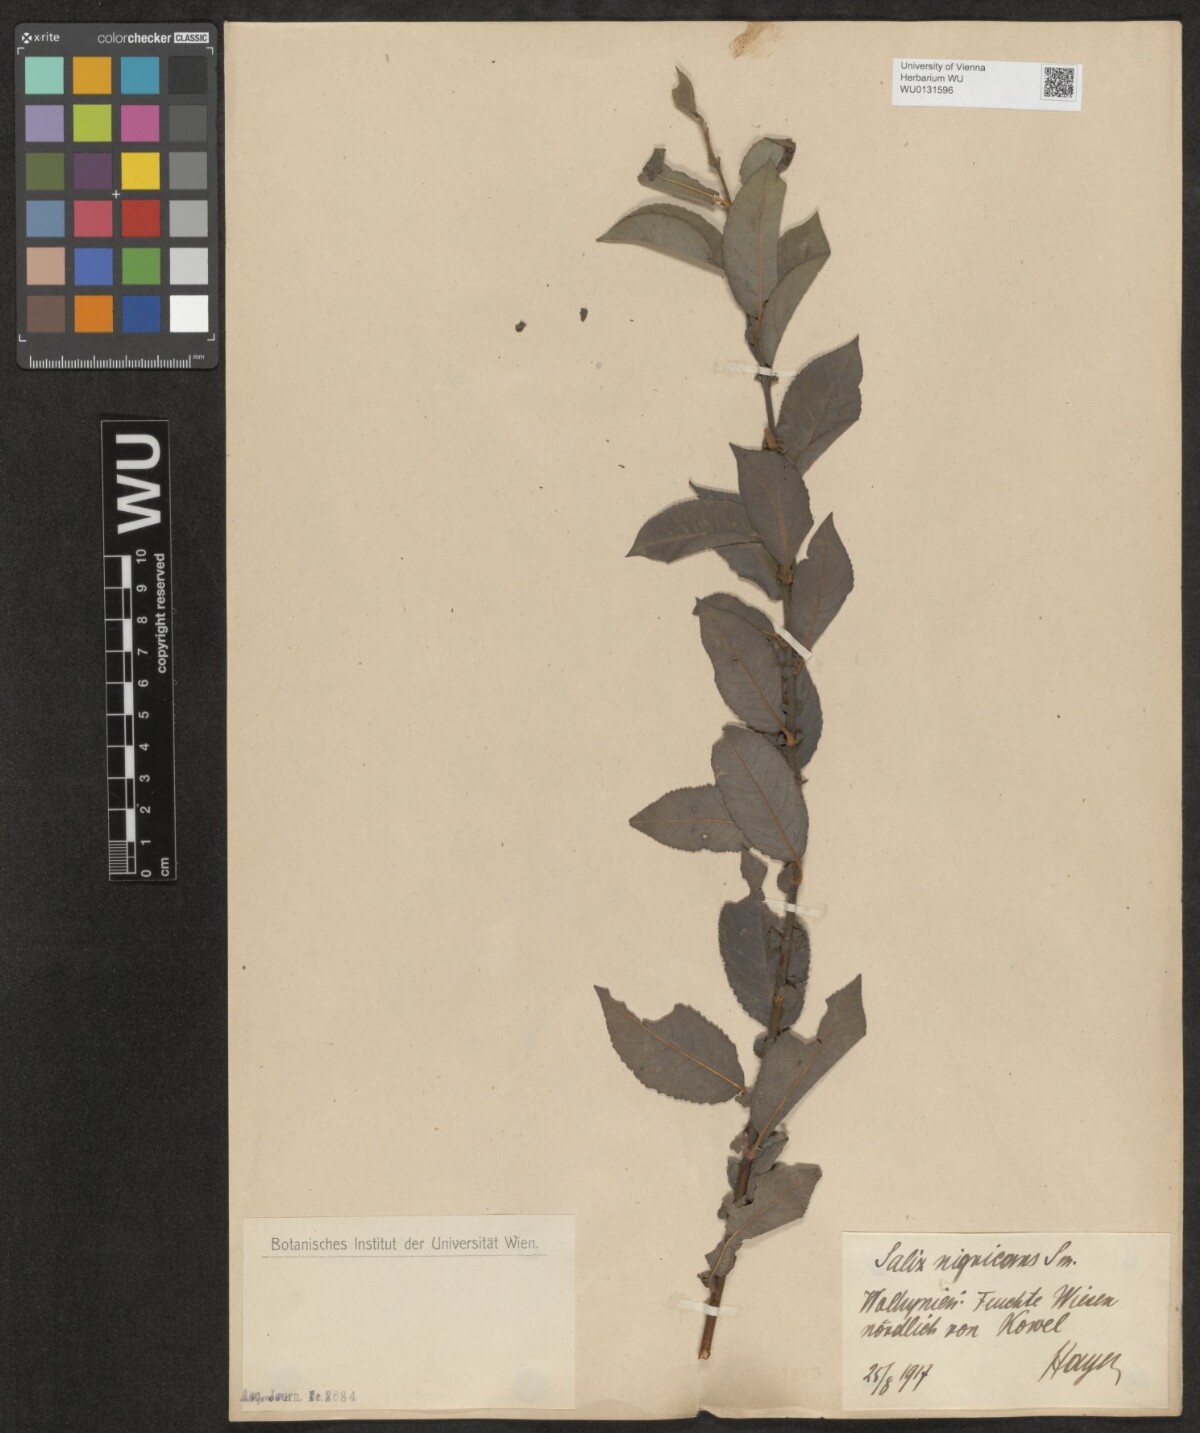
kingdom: Plantae
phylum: Tracheophyta
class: Magnoliopsida
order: Malpighiales
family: Salicaceae
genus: Salix
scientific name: Salix myrsinifolia
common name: Dark-leaved willow
